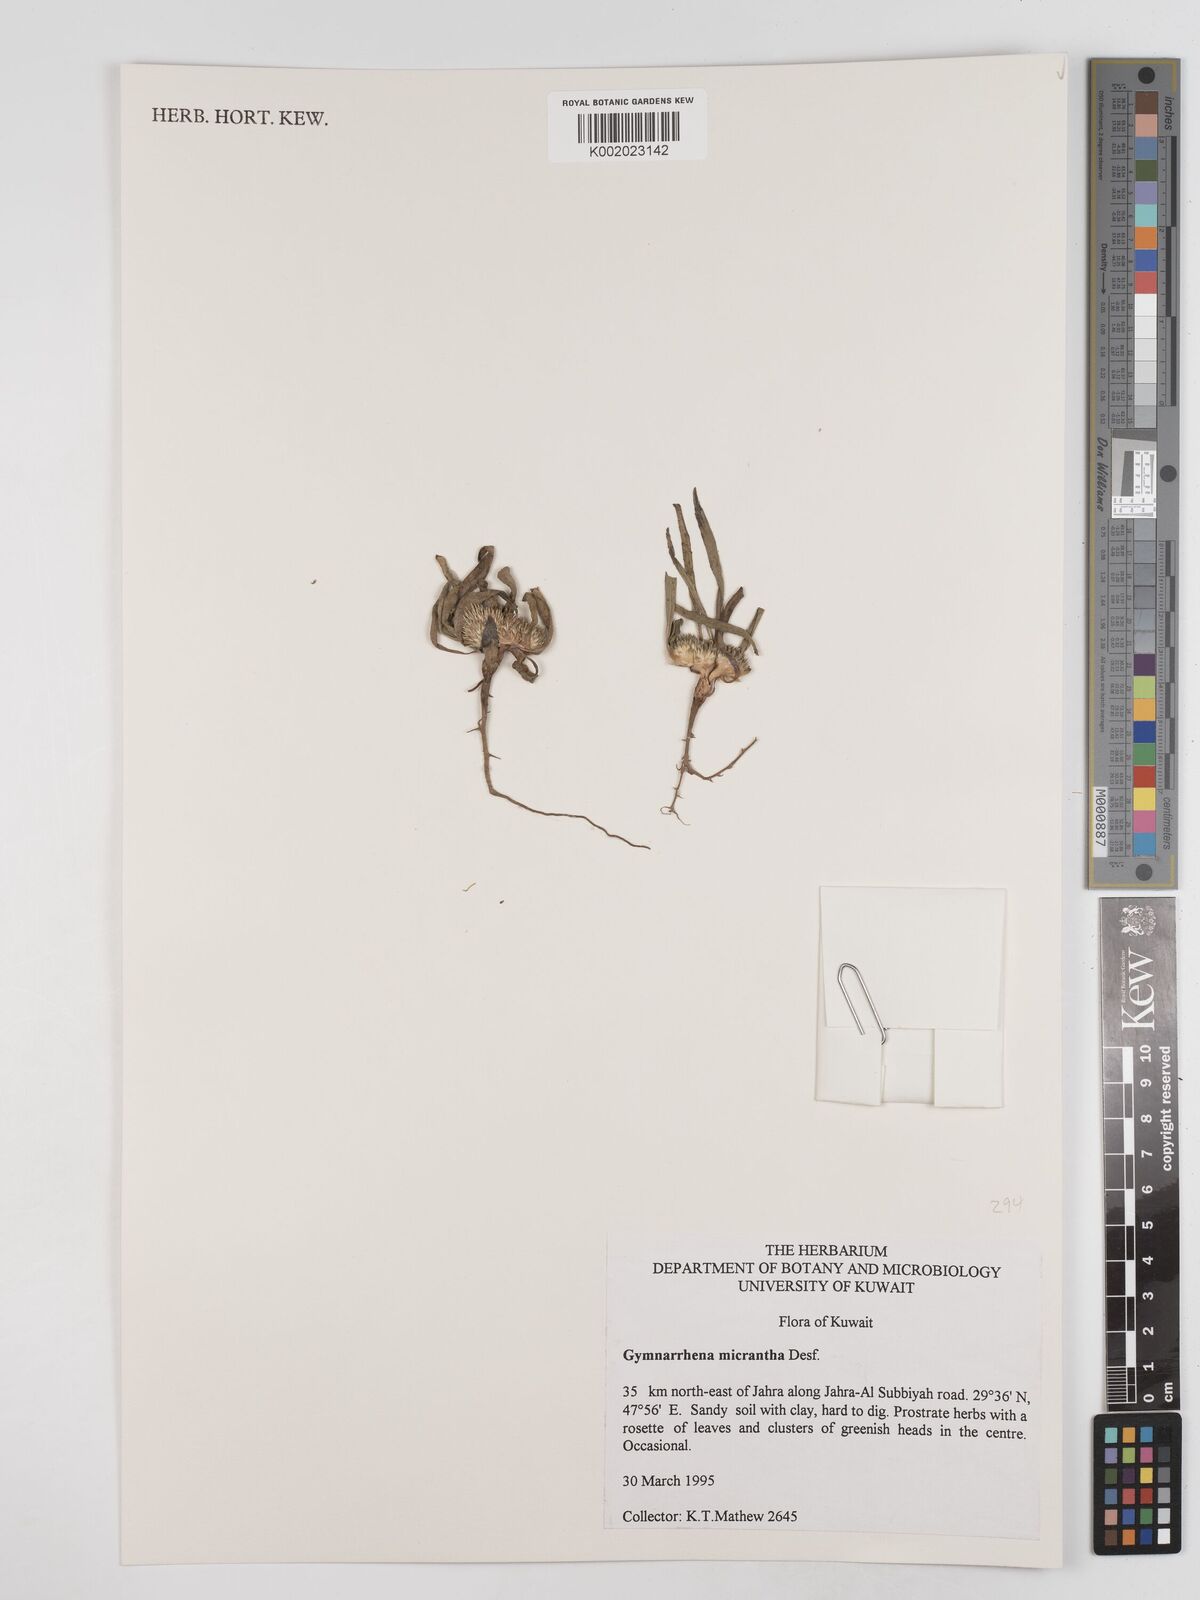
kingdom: Plantae
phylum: Tracheophyta
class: Magnoliopsida
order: Asterales
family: Asteraceae
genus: Gymnarrhena
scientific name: Gymnarrhena micrantha
